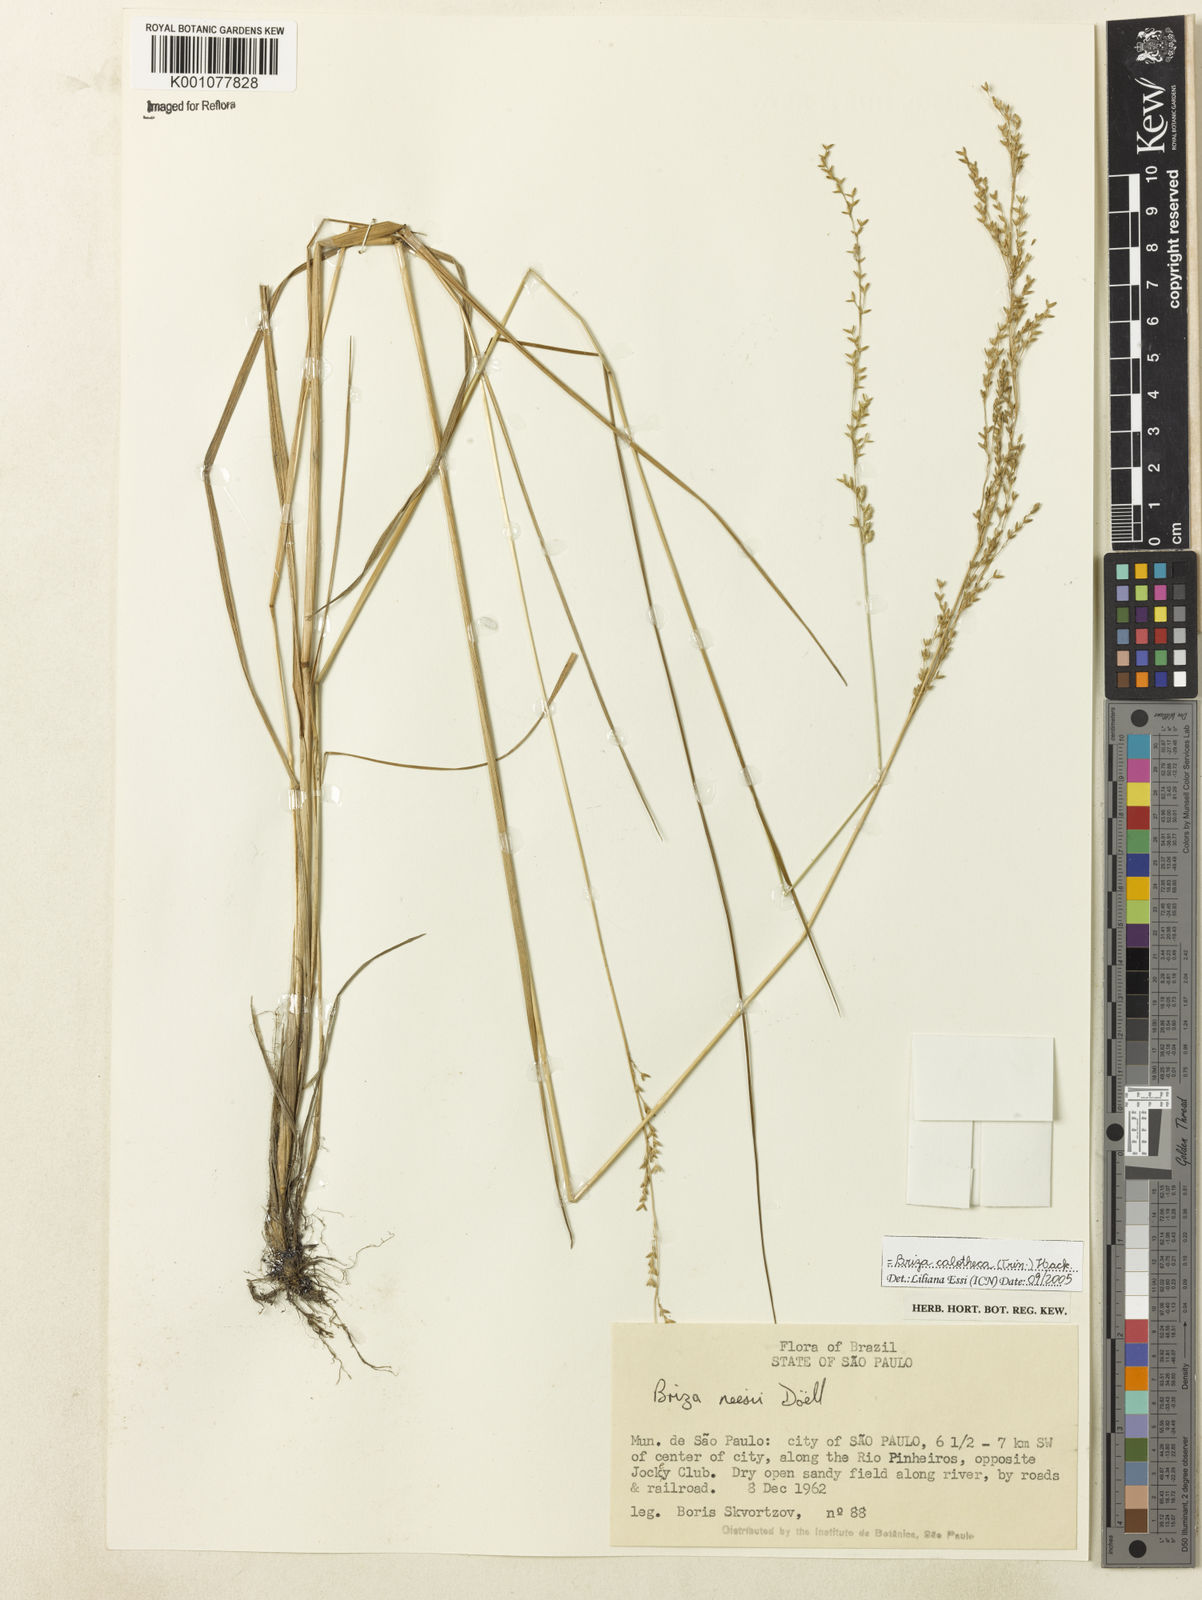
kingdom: Plantae
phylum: Tracheophyta
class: Liliopsida
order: Poales
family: Poaceae
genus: Poidium
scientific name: Poidium calotheca
